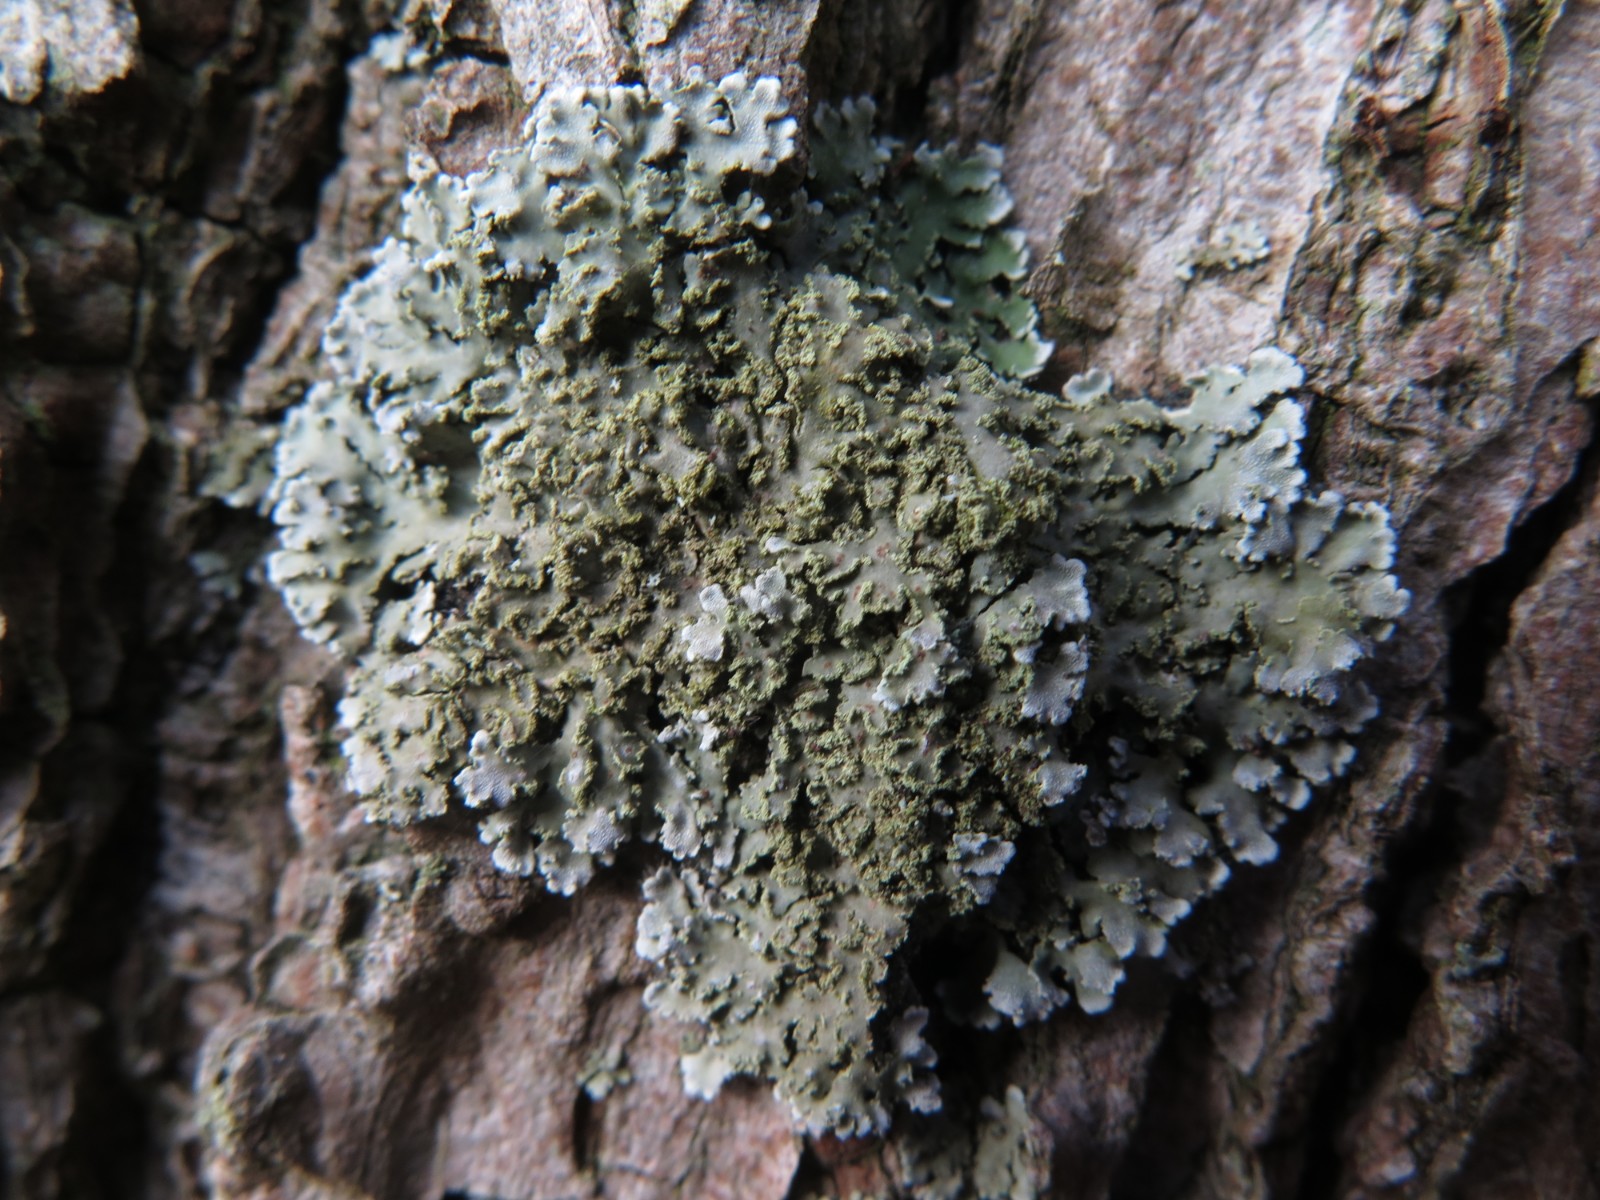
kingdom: Fungi
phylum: Ascomycota
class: Lecanoromycetes
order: Caliciales
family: Physciaceae
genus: Physconia
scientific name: Physconia perisidiosa
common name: liden dugrosetlav
